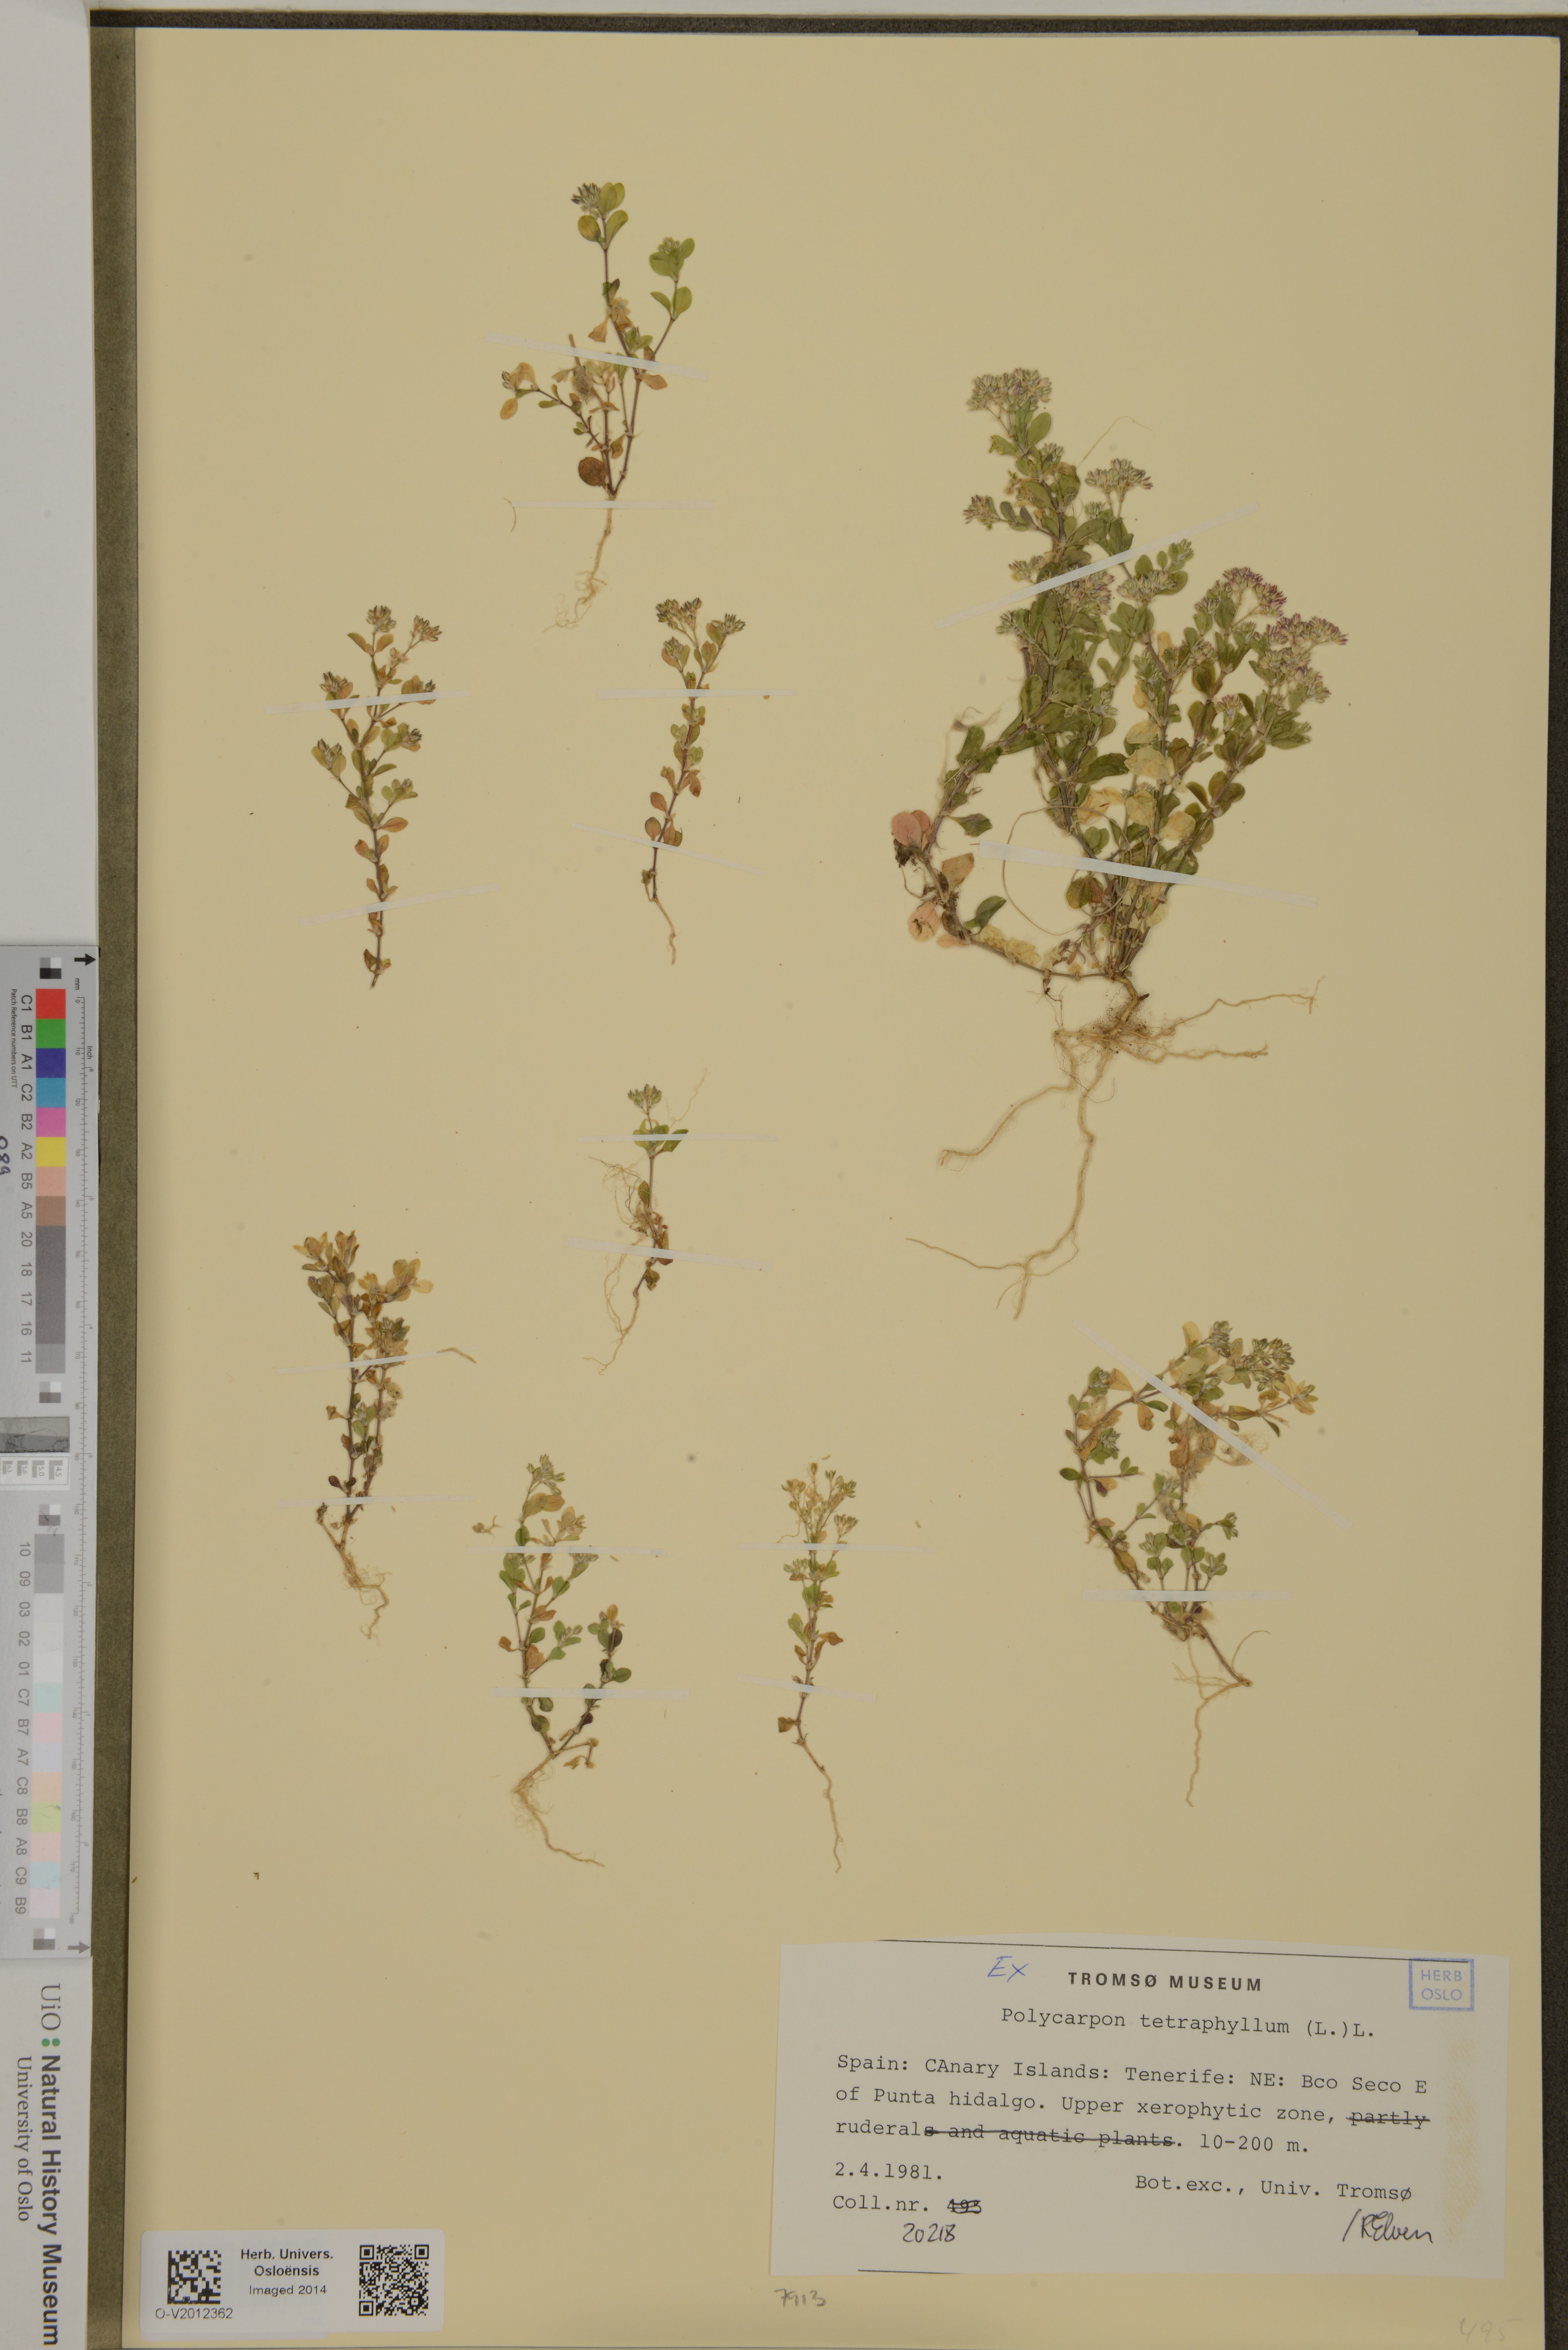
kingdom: Plantae
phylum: Tracheophyta
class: Magnoliopsida
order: Caryophyllales
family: Caryophyllaceae
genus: Polycarpon
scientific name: Polycarpon tetraphyllum
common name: Four-leaved all-seed
